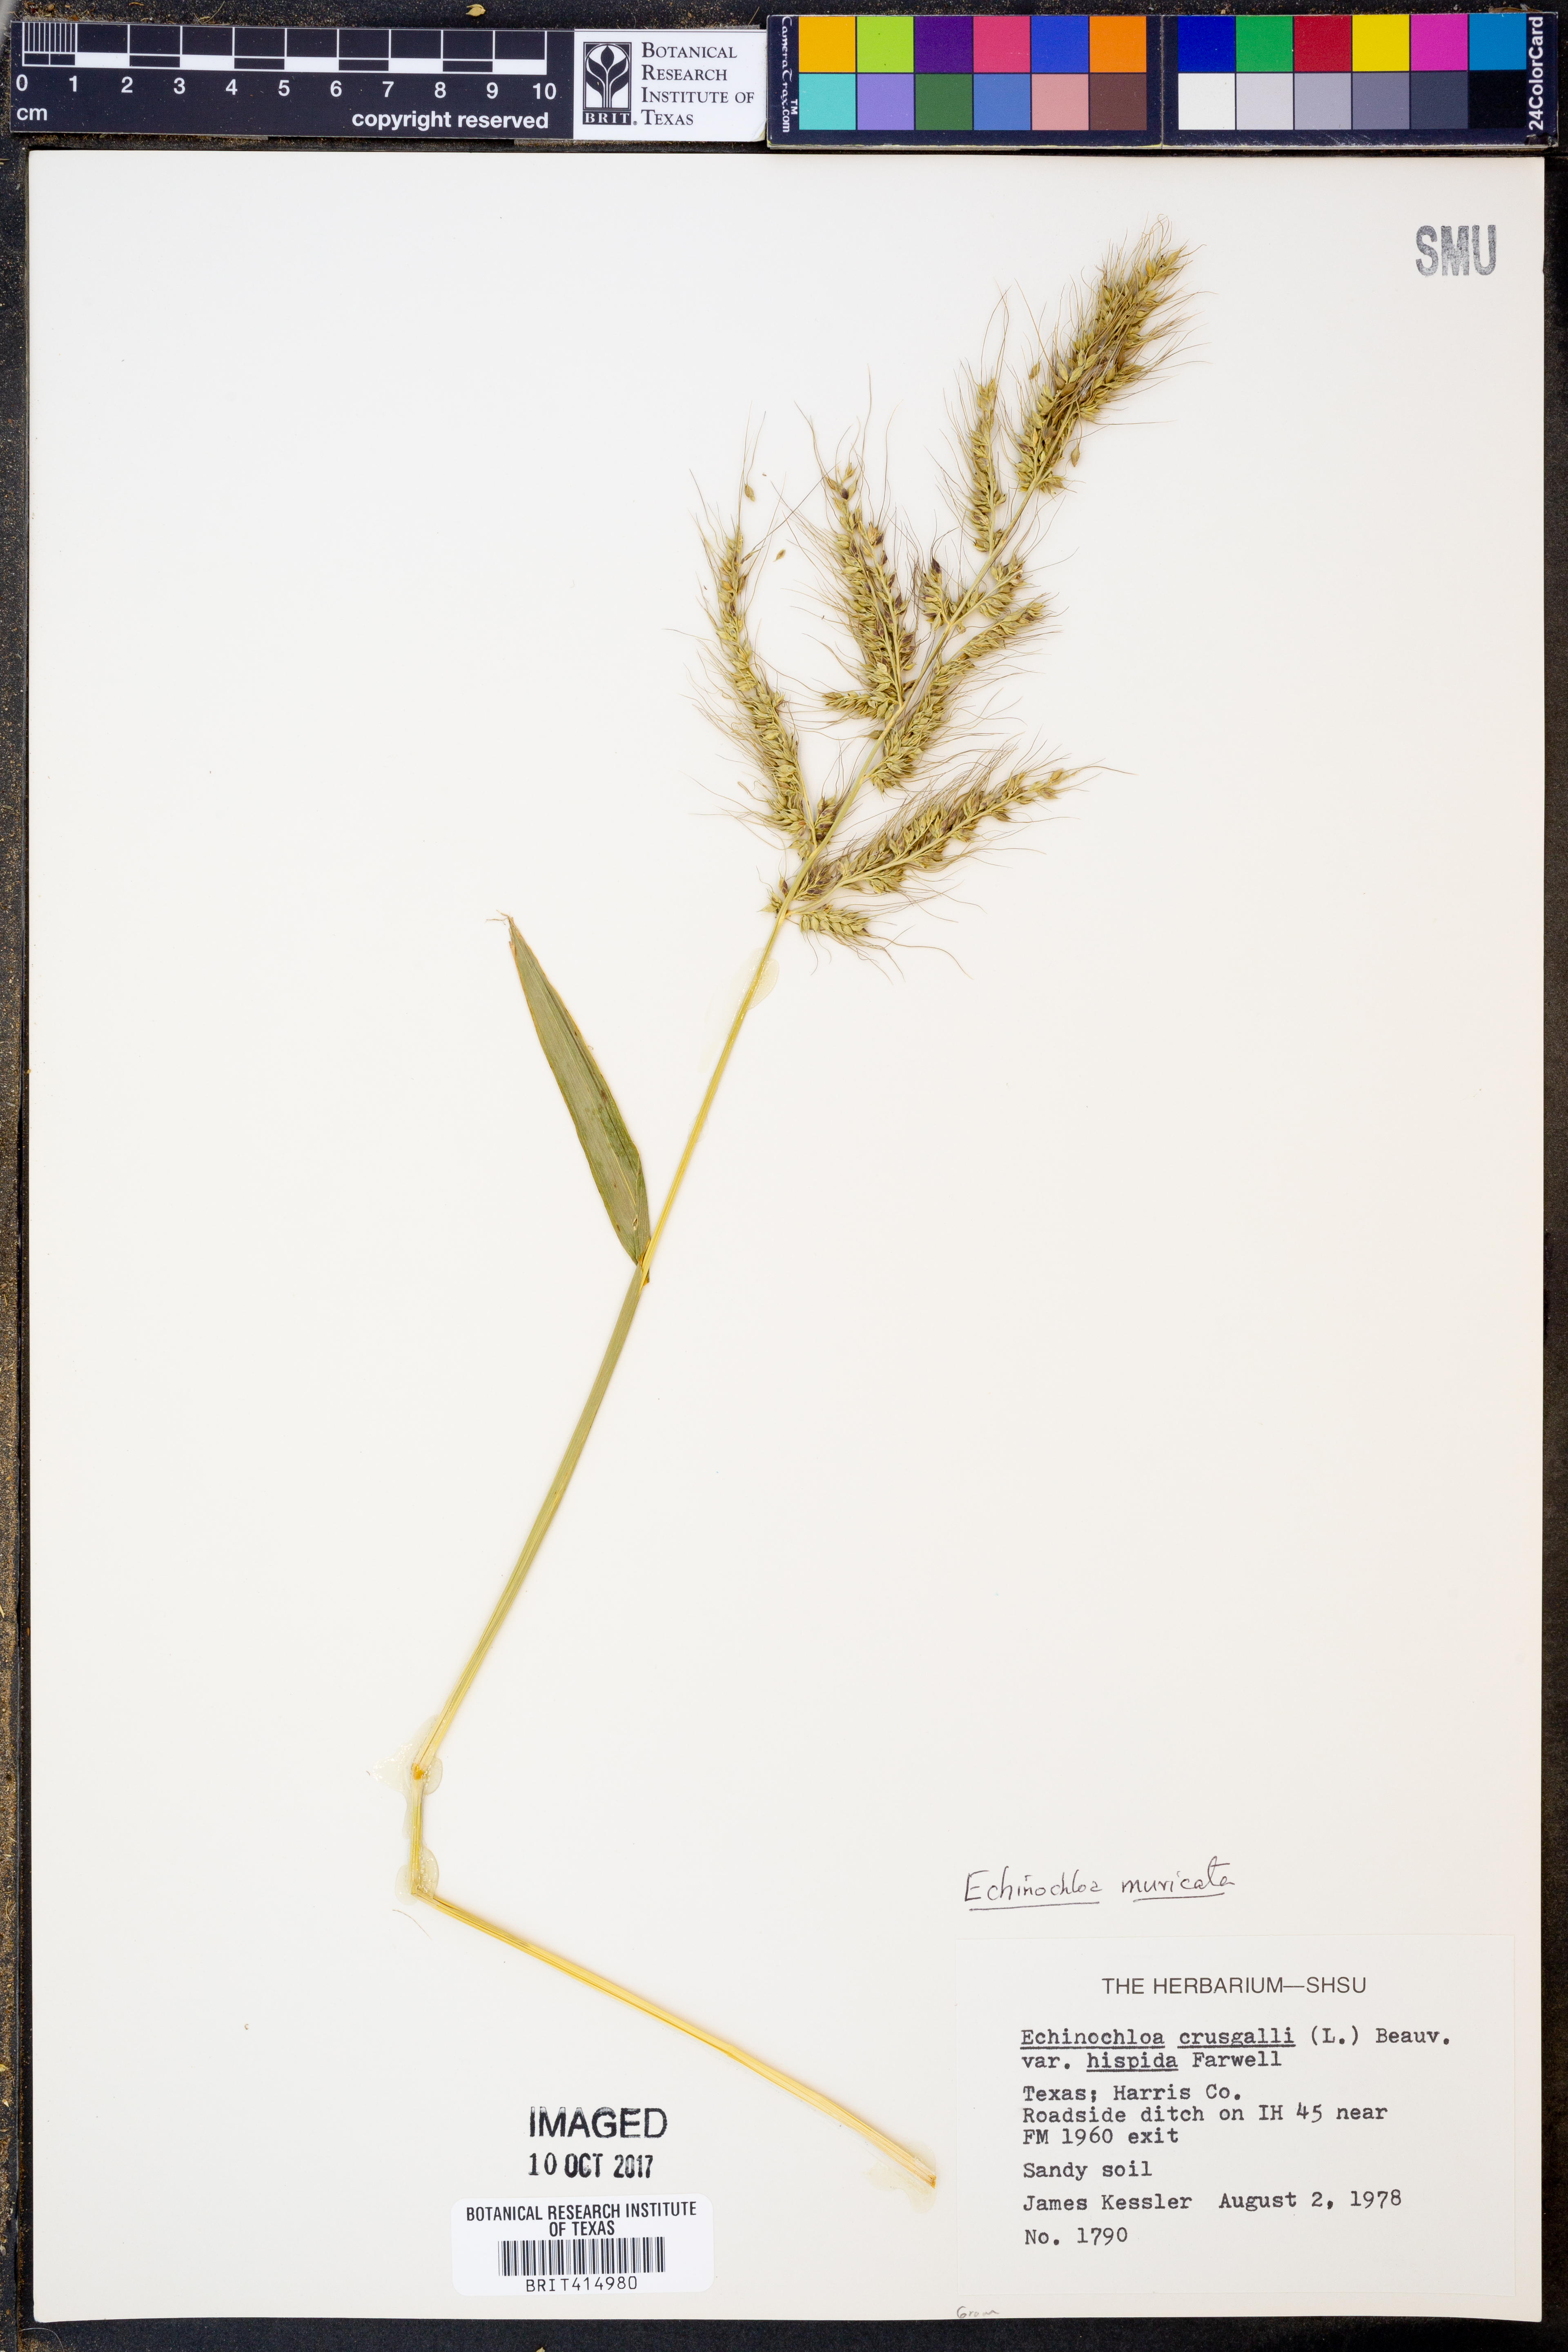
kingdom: Plantae
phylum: Tracheophyta
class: Liliopsida
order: Poales
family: Poaceae
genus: Echinochloa
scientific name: Echinochloa muricata
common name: American barnyard grass
